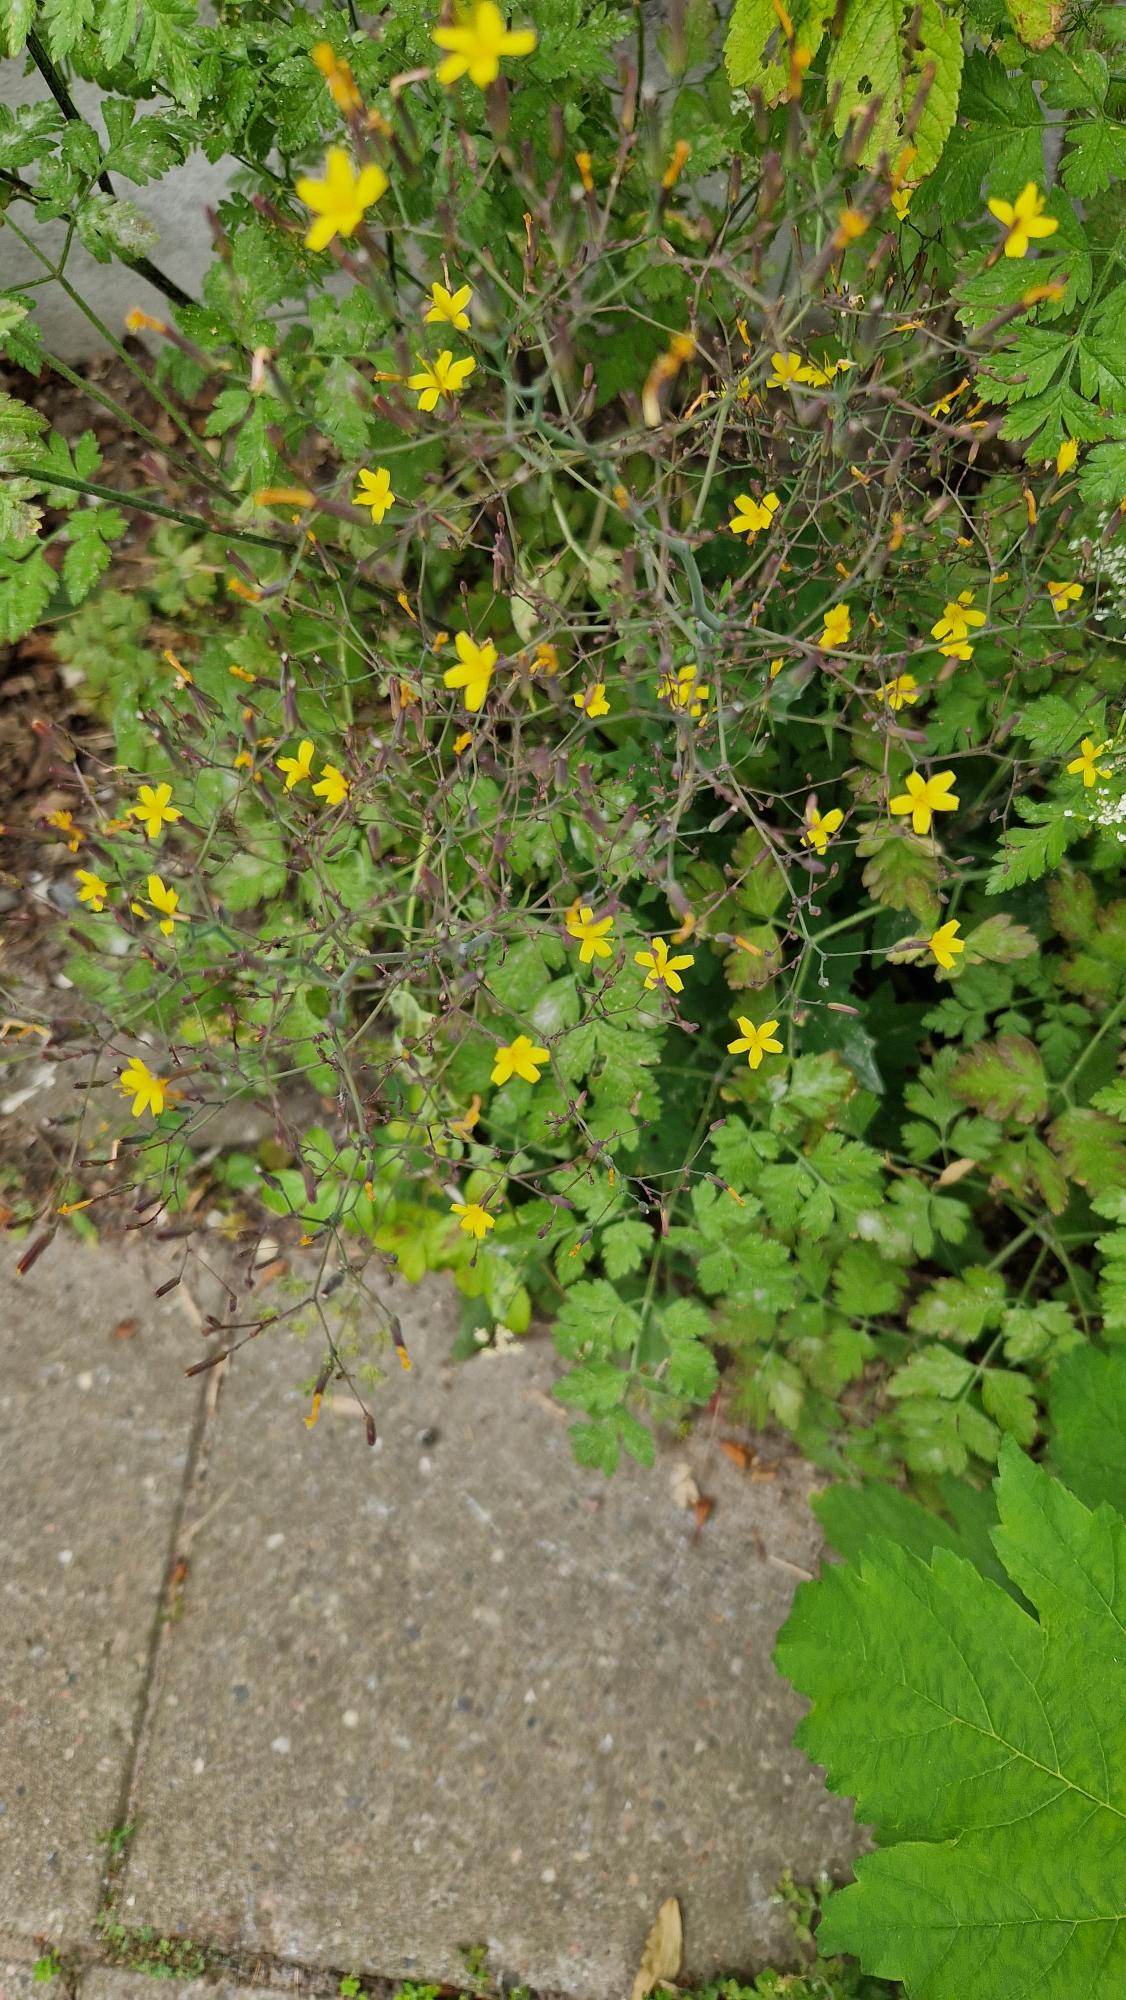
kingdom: Plantae
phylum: Tracheophyta
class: Magnoliopsida
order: Asterales
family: Asteraceae
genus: Mycelis
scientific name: Mycelis muralis
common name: Skov-salat
